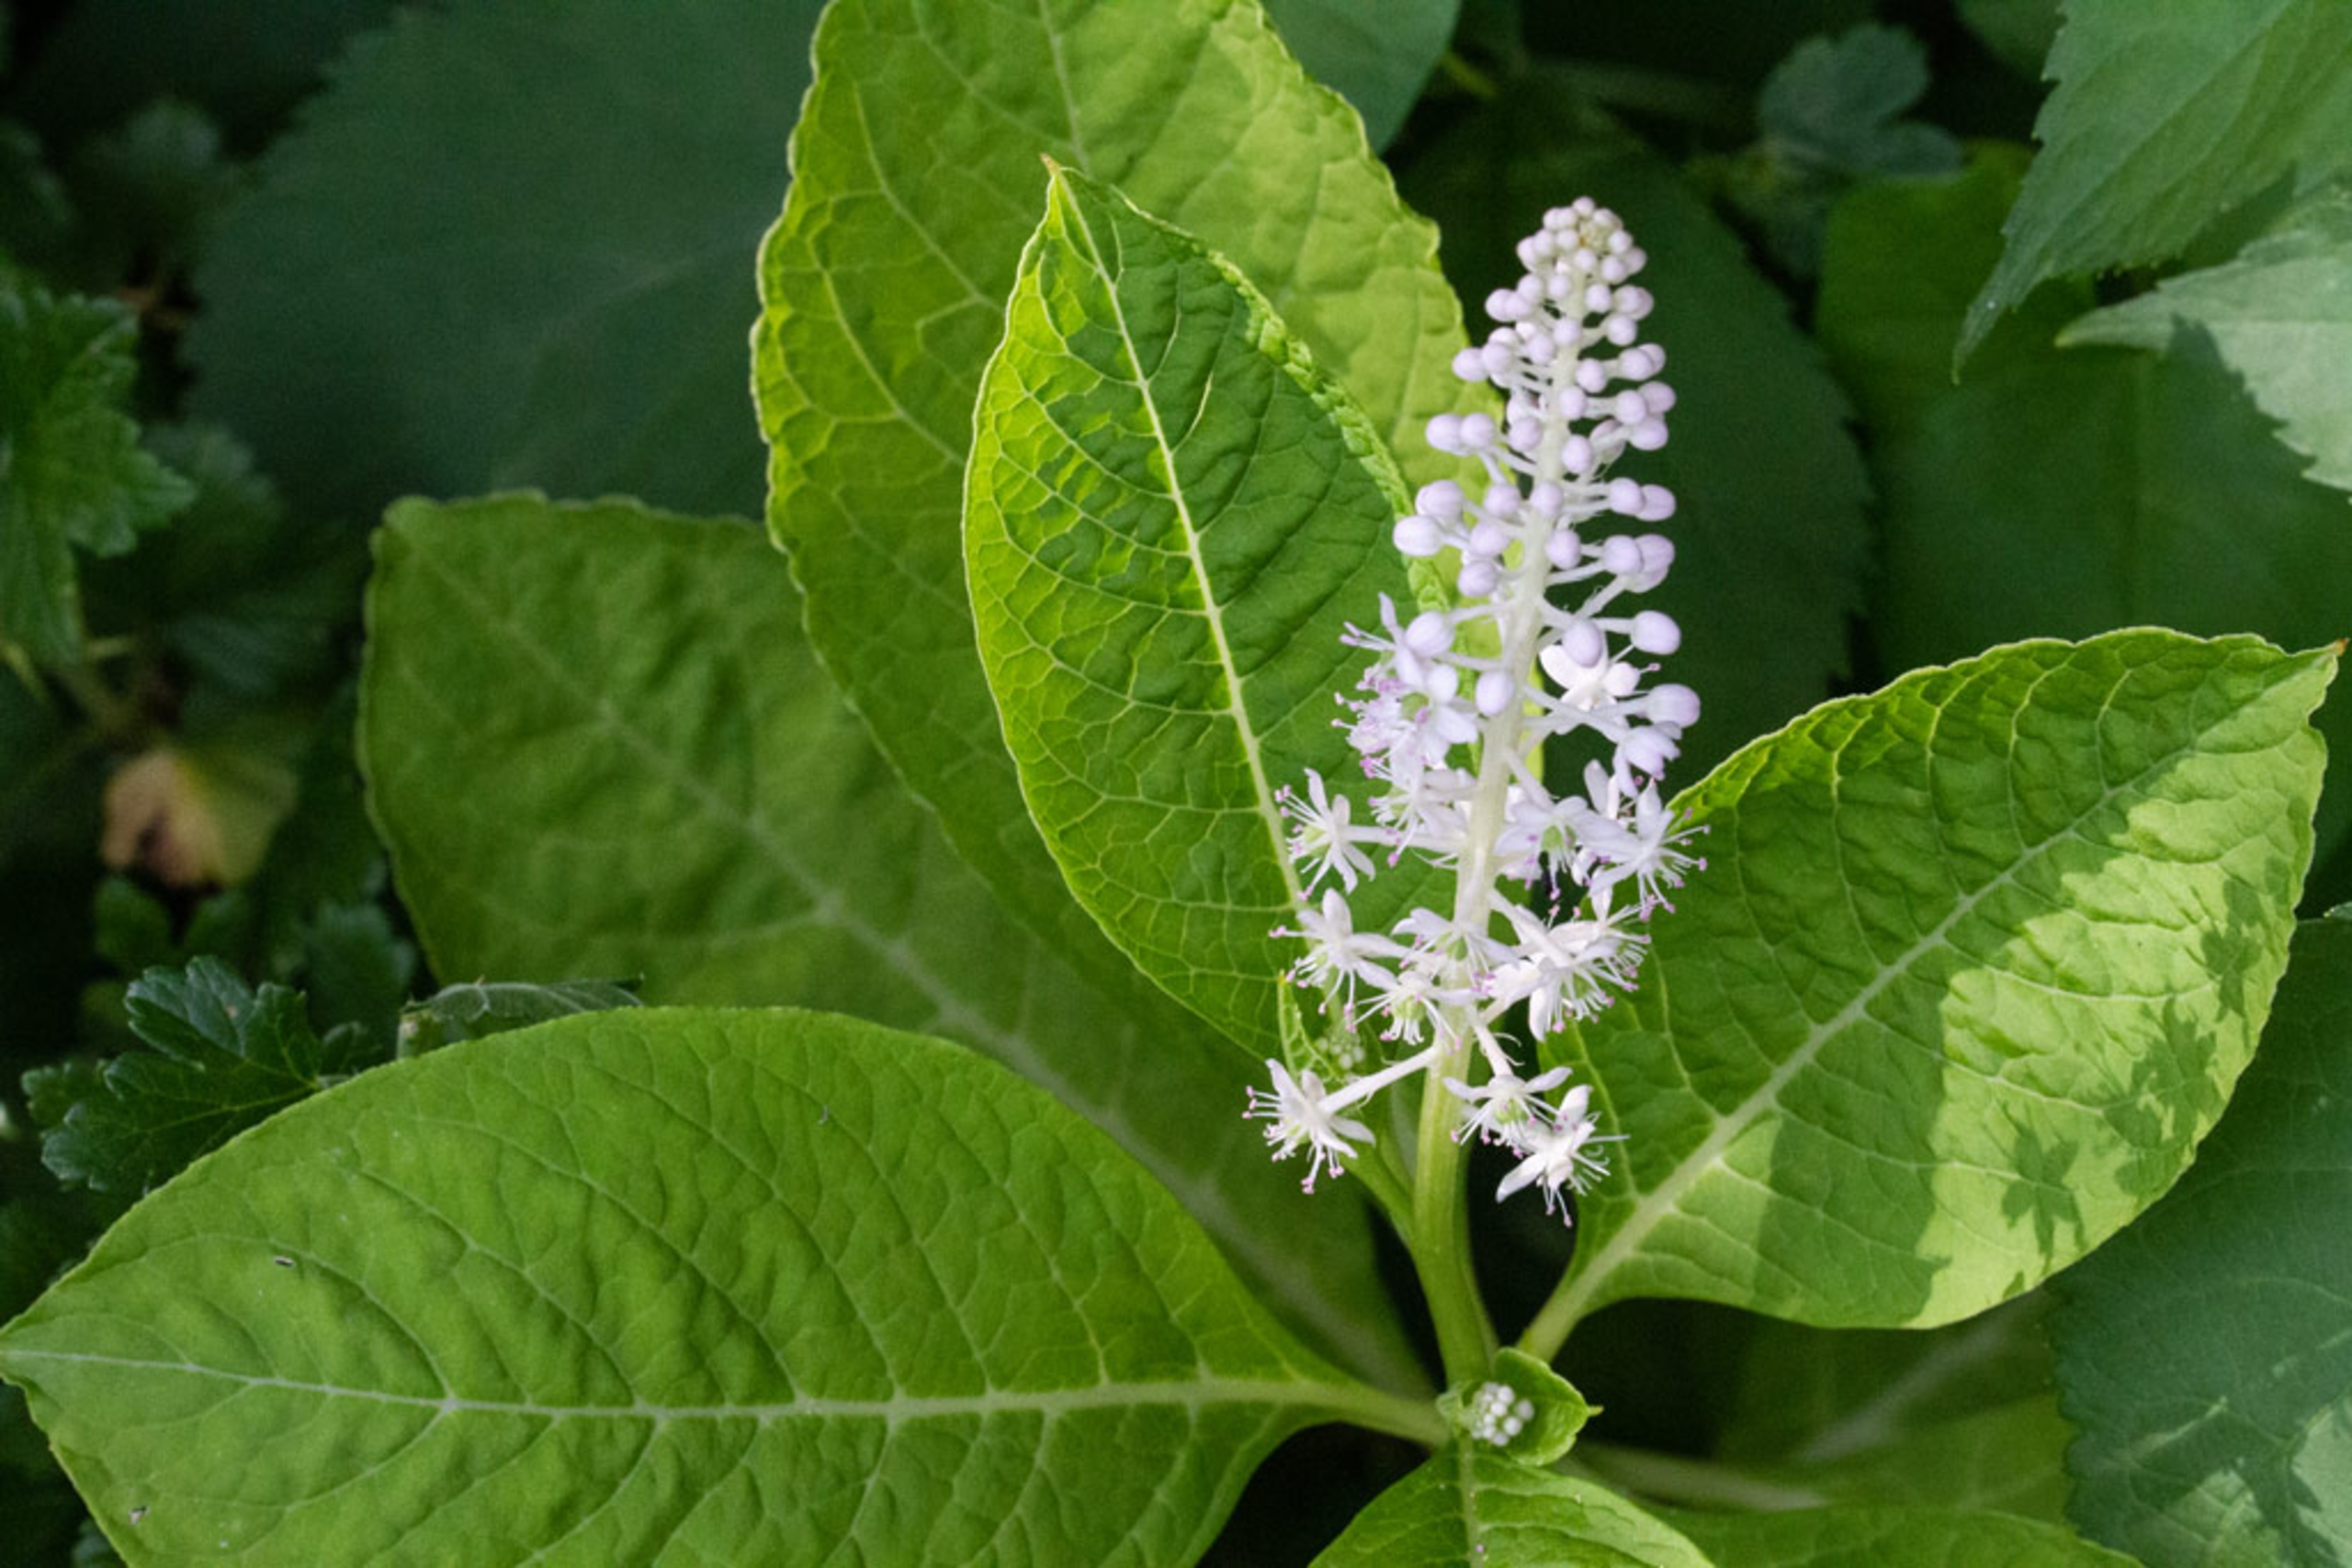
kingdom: Plantae
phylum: Tracheophyta
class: Magnoliopsida
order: Caryophyllales
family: Phytolaccaceae
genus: Phytolacca
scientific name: Phytolacca acinosa
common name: Asiatisk kermesbær
